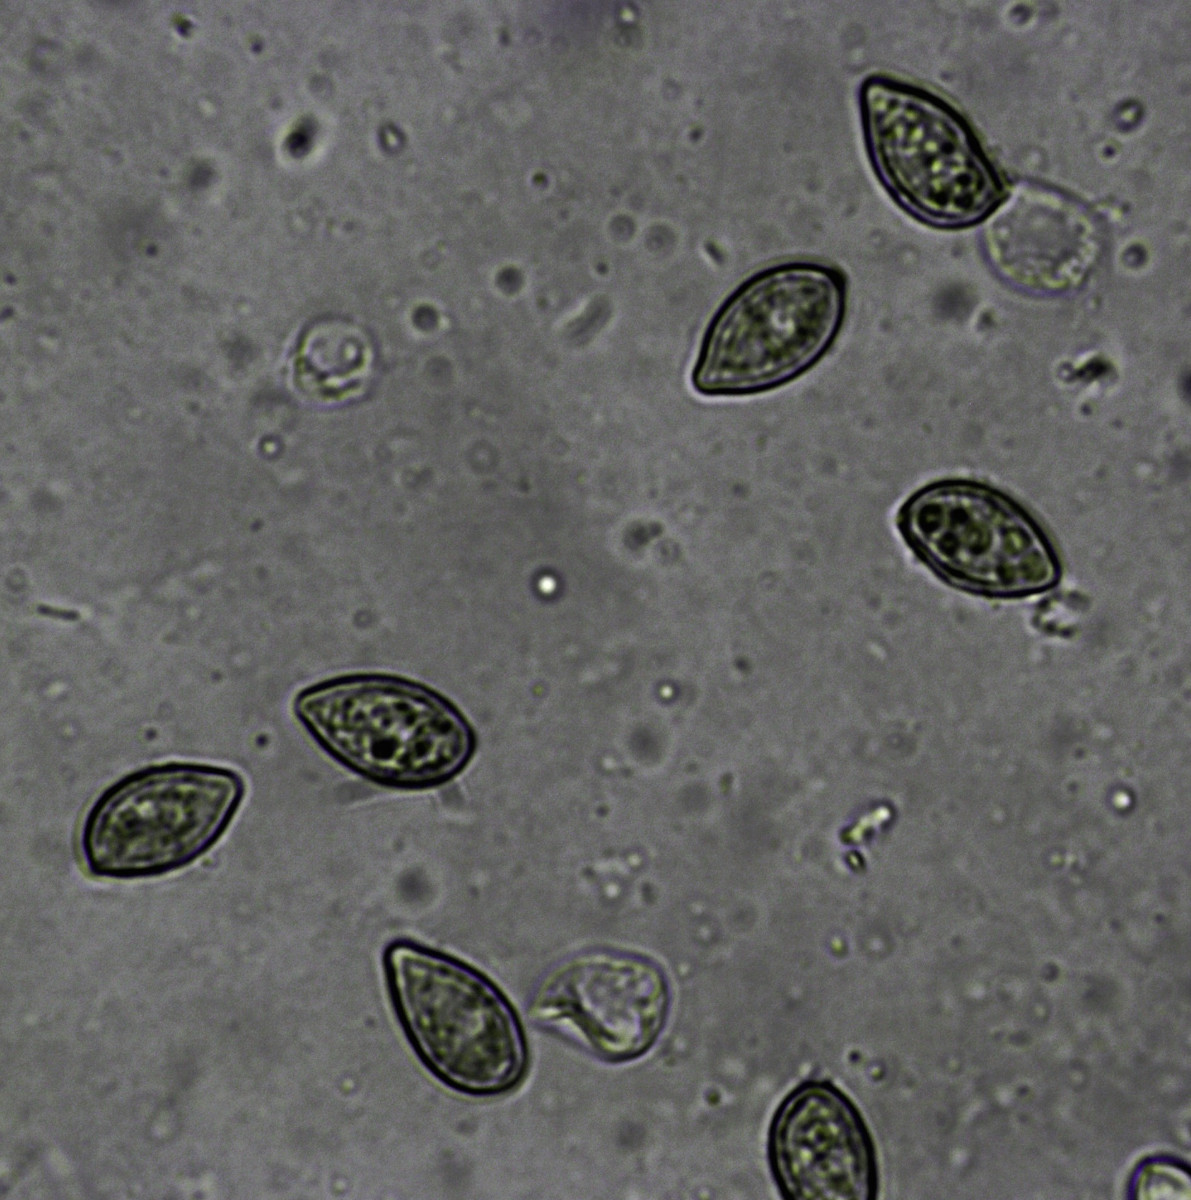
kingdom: Fungi
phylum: Basidiomycota
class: Agaricomycetes
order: Agaricales
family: Hymenogastraceae
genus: Galerina
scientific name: Galerina atkinsoniana
